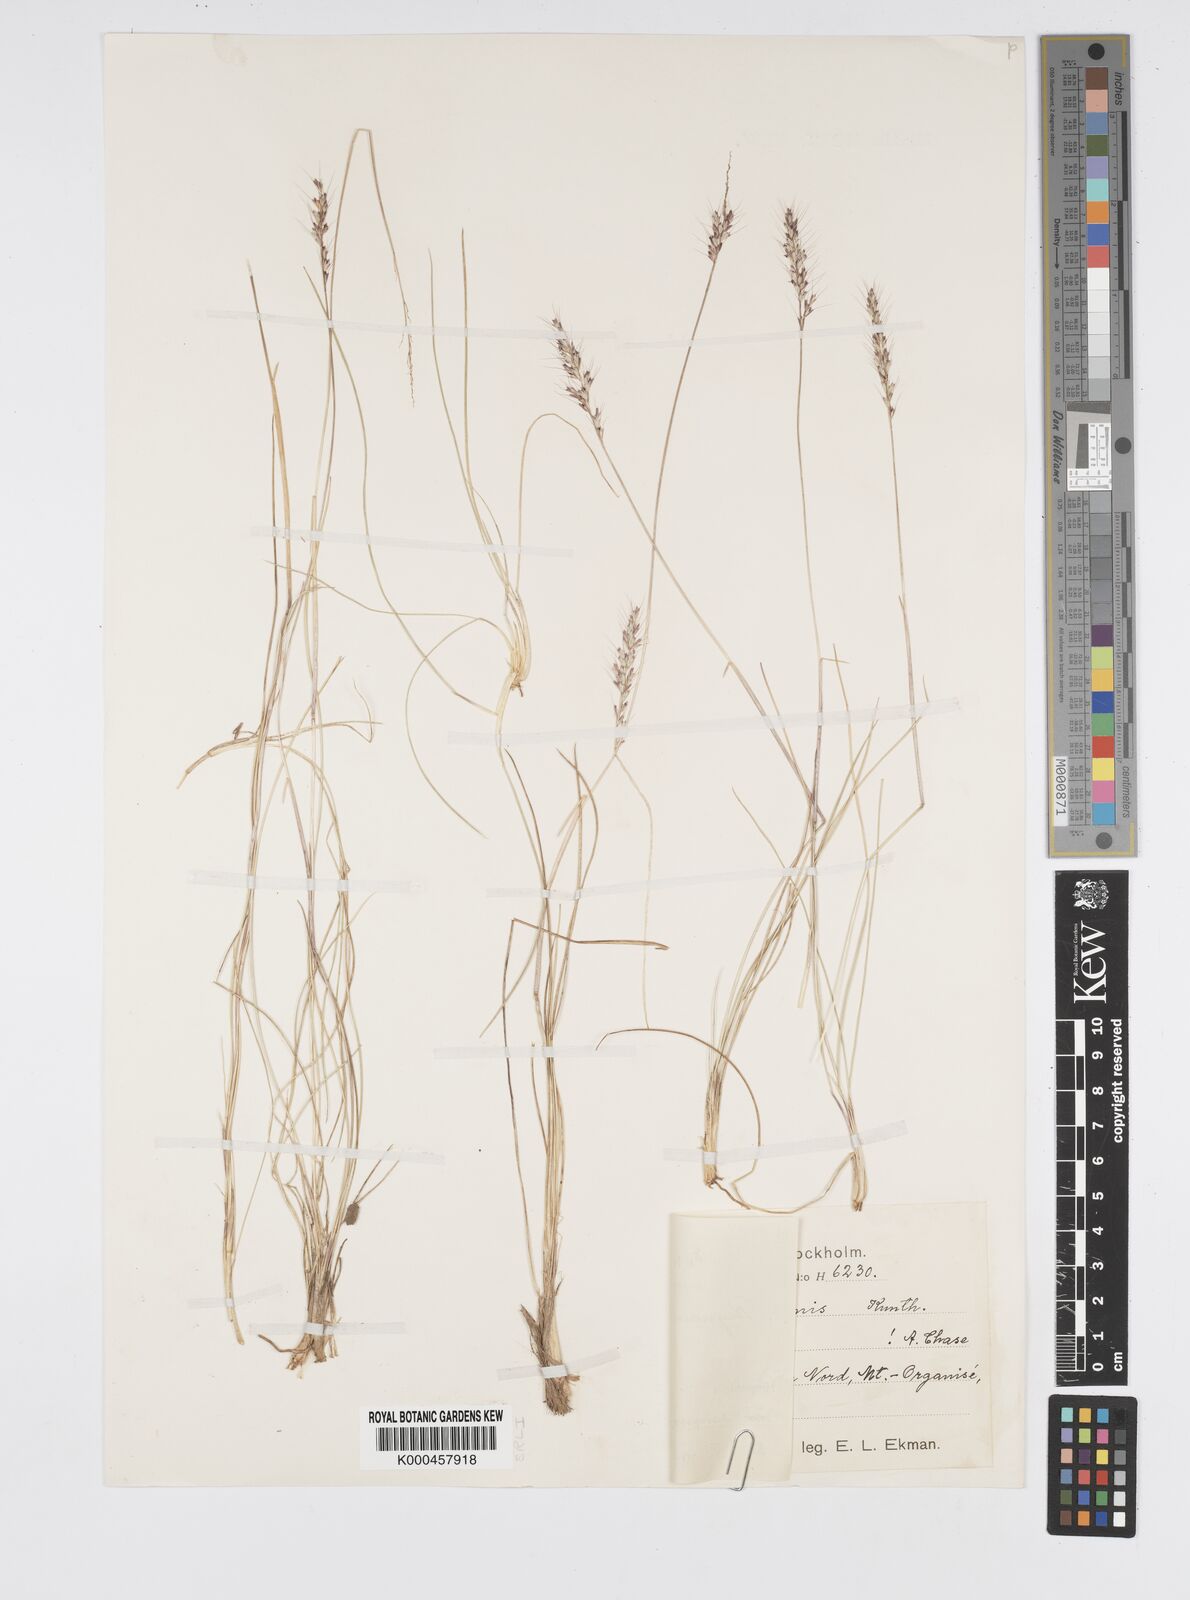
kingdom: Plantae
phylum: Tracheophyta
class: Liliopsida
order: Poales
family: Poaceae
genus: Reynaudia
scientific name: Reynaudia filiformis
